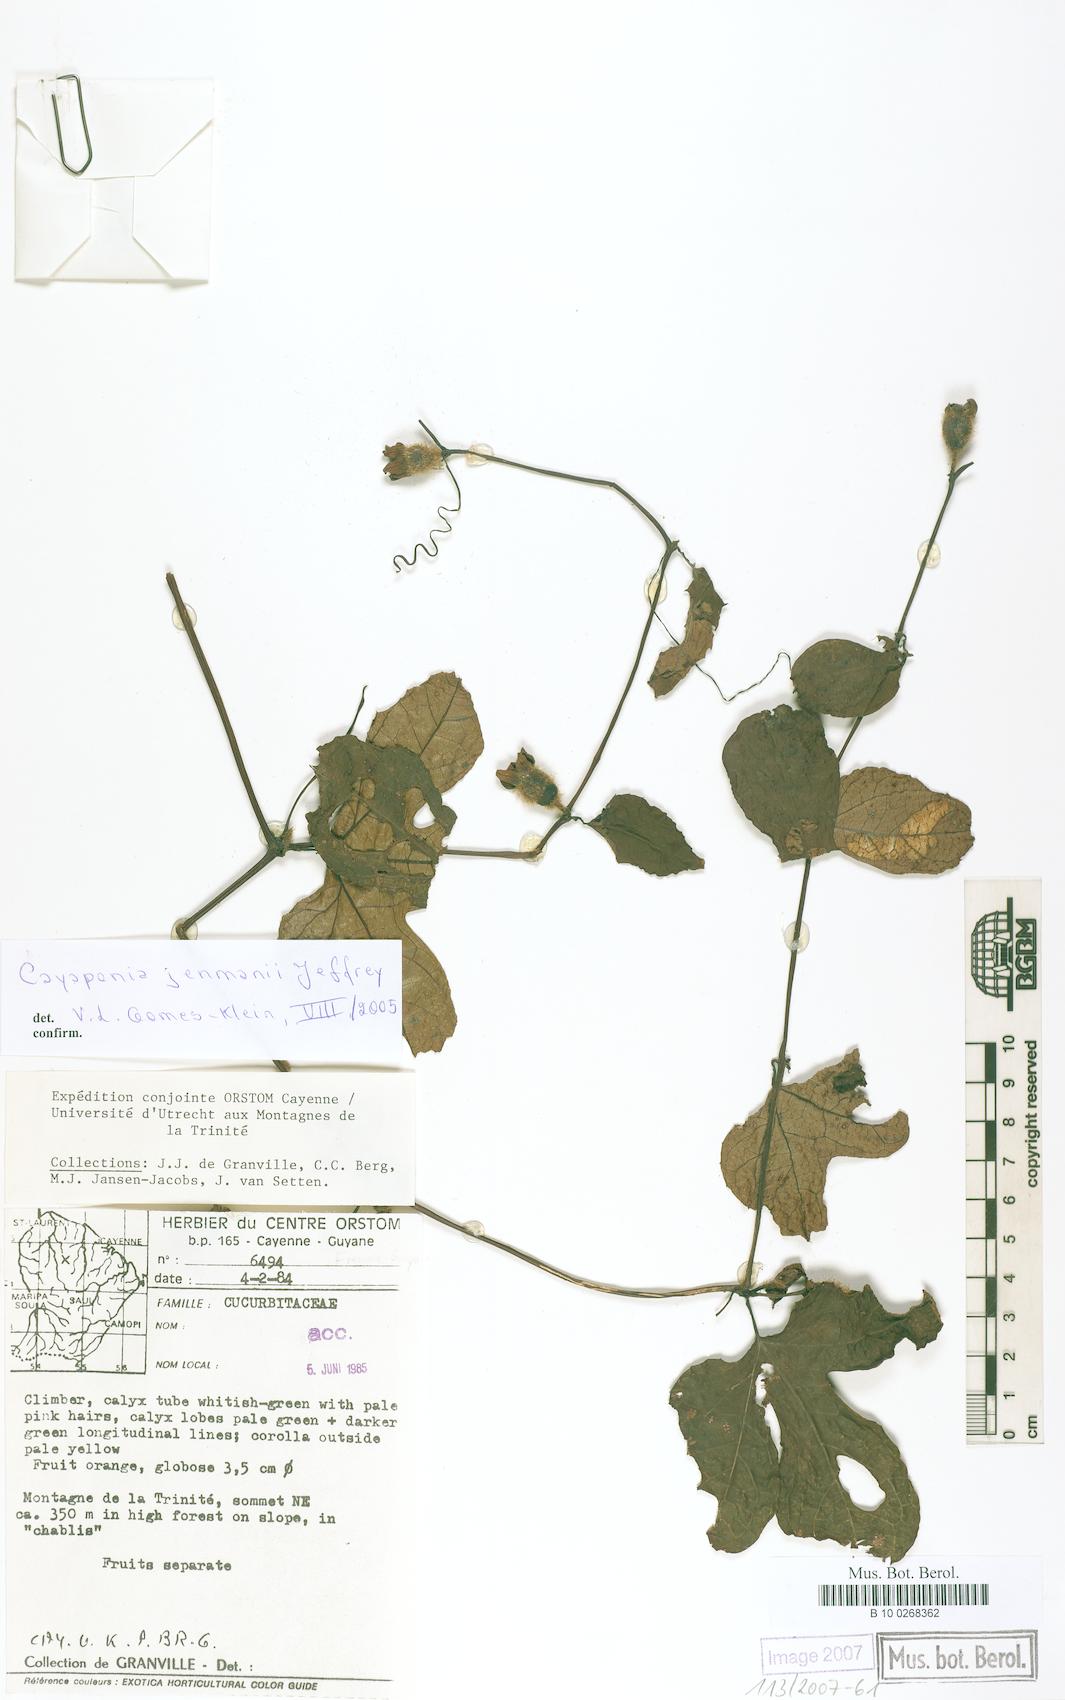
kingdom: Plantae
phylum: Tracheophyta
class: Magnoliopsida
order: Cucurbitales
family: Cucurbitaceae
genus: Cayaponia
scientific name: Cayaponia peruviana
